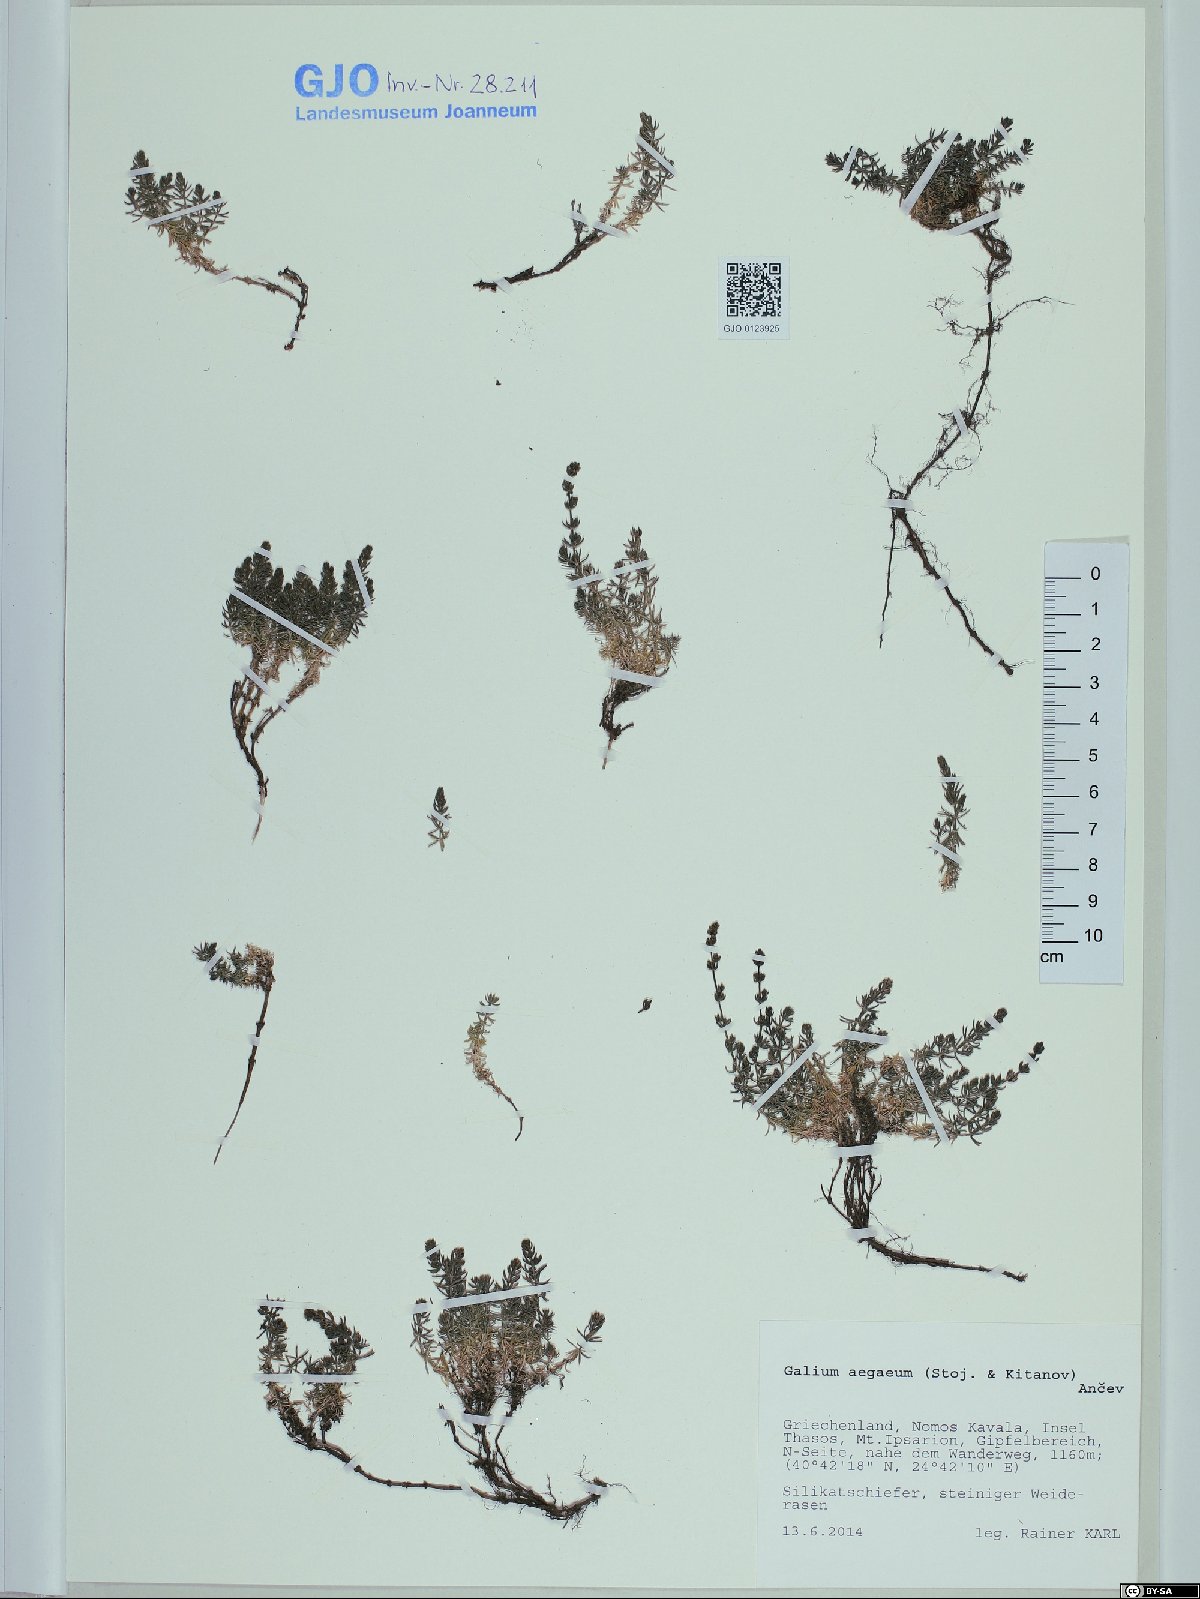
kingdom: Plantae
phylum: Tracheophyta
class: Magnoliopsida
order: Gentianales
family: Rubiaceae
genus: Galium
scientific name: Galium aegeum
